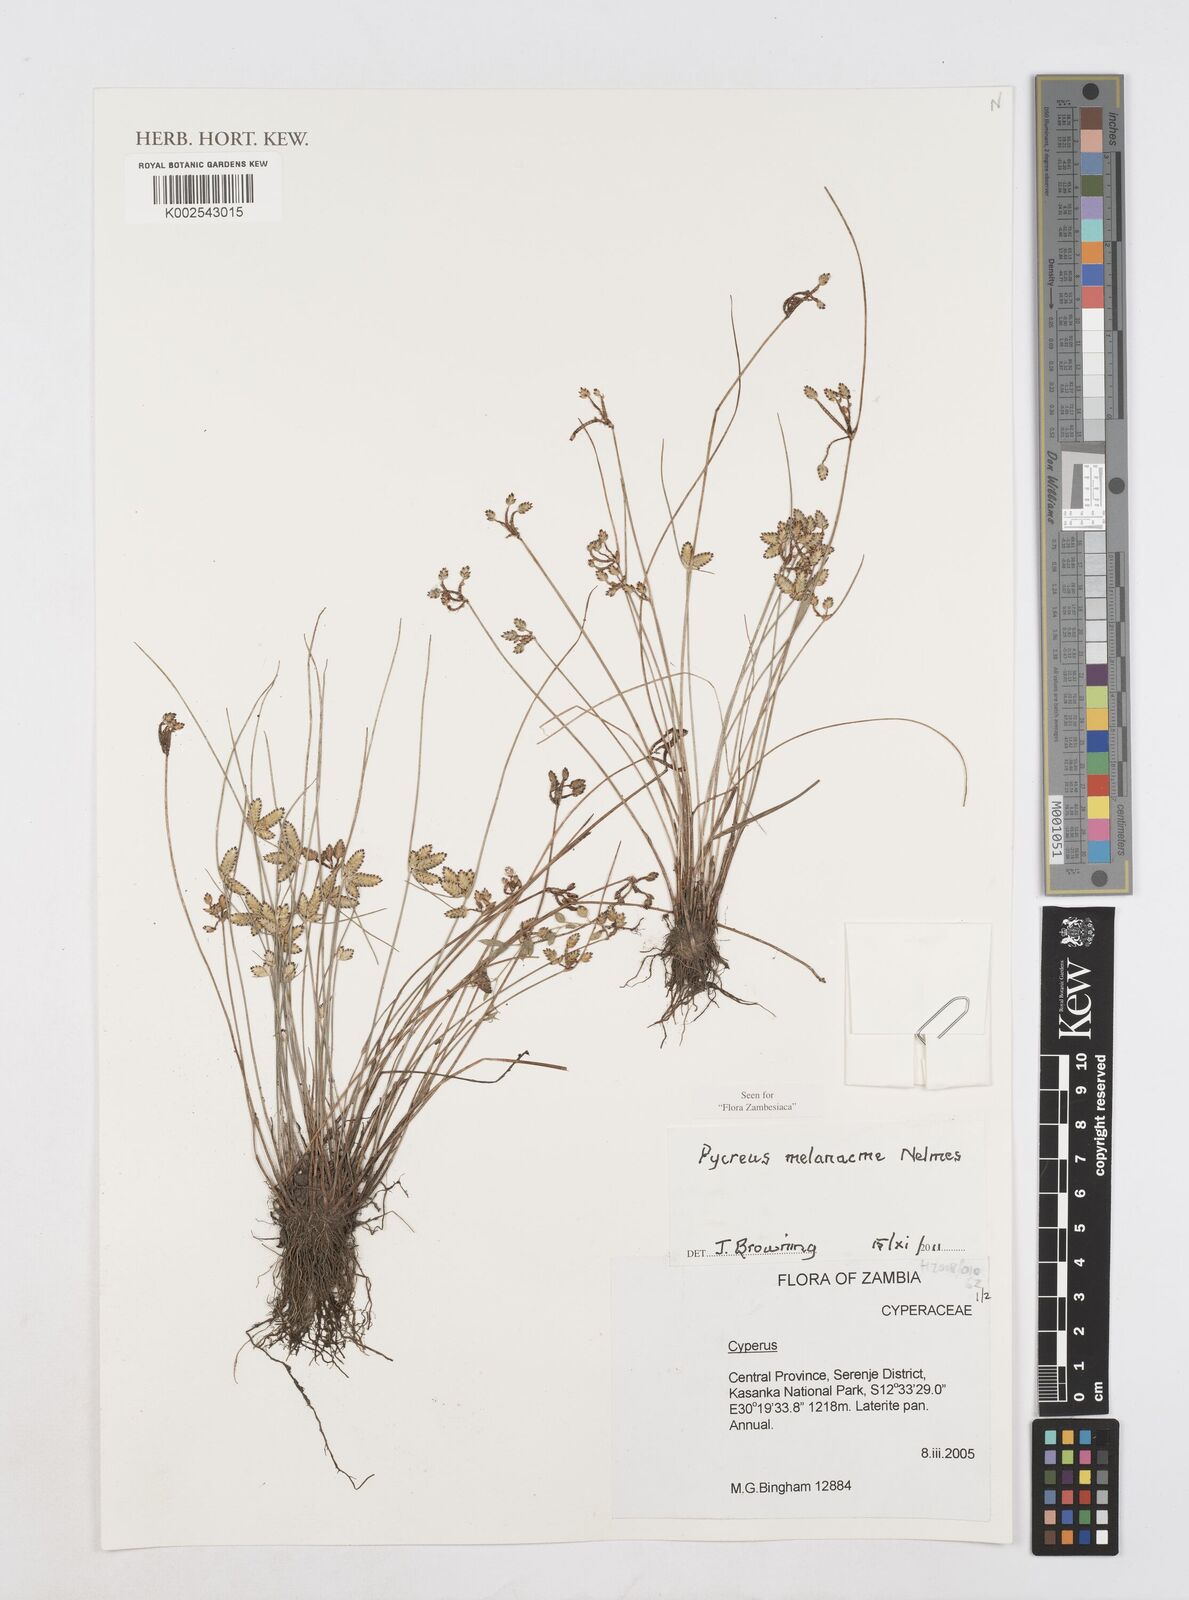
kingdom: Plantae
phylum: Tracheophyta
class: Liliopsida
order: Poales
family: Cyperaceae
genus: Cyperus
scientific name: Cyperus melanacme
